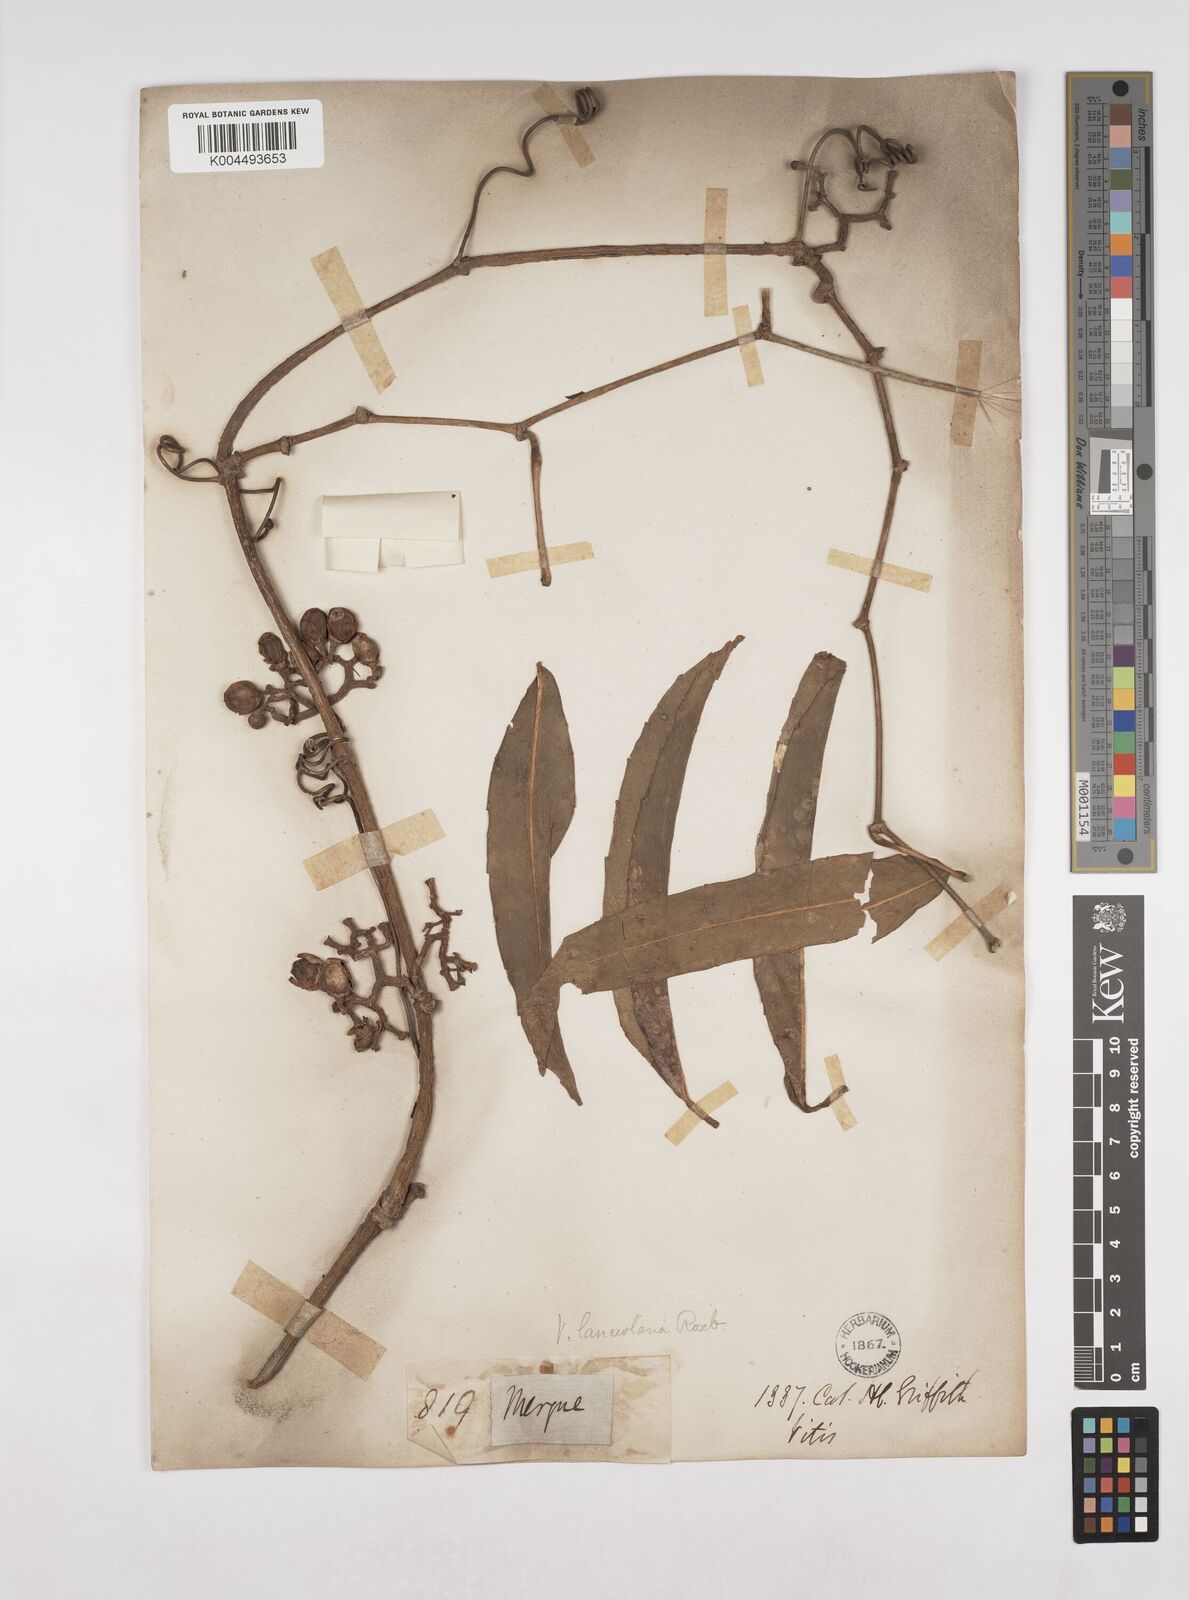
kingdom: Plantae
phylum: Tracheophyta
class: Magnoliopsida
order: Vitales
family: Vitaceae
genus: Tetrastigma
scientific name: Tetrastigma harmandii
